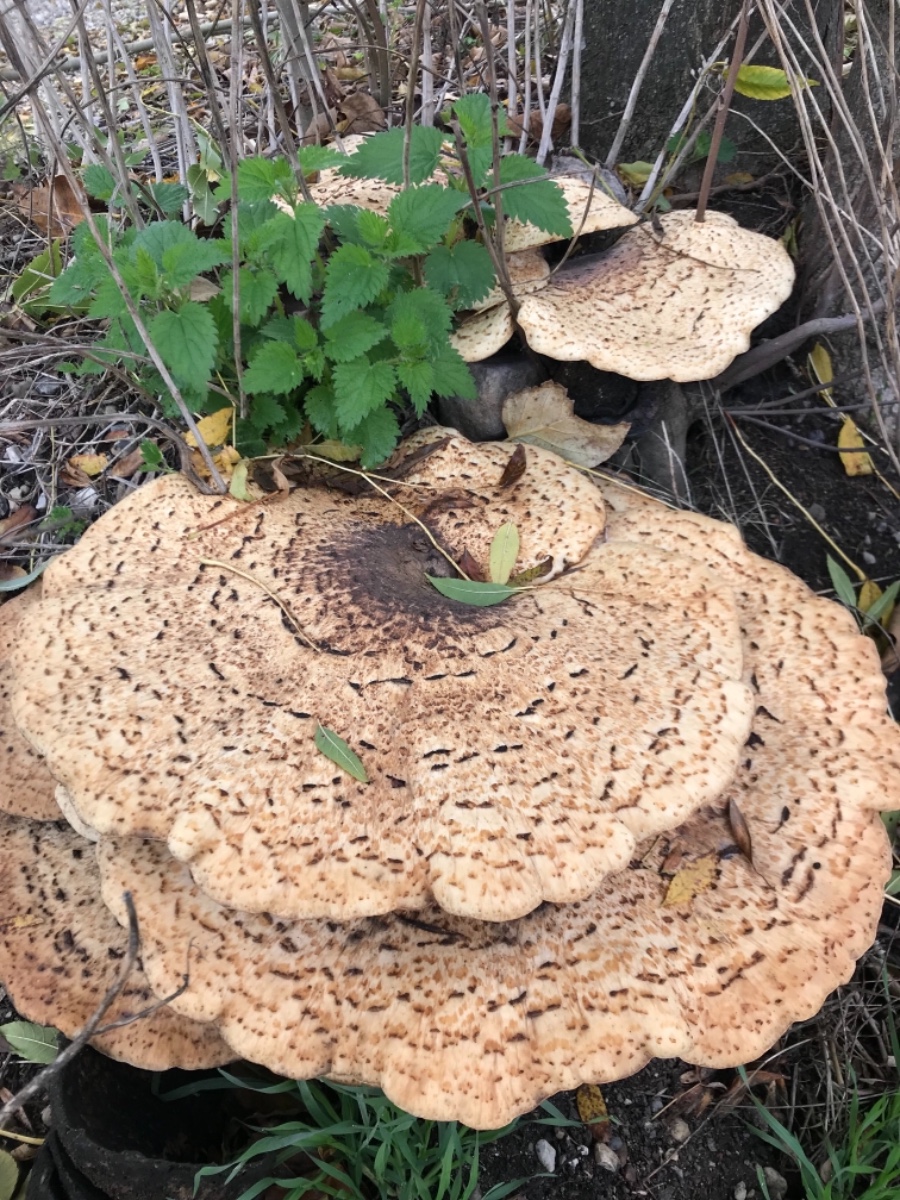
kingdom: Fungi
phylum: Basidiomycota
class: Agaricomycetes
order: Polyporales
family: Polyporaceae
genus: Cerioporus
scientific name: Cerioporus squamosus
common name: skællet stilkporesvamp
